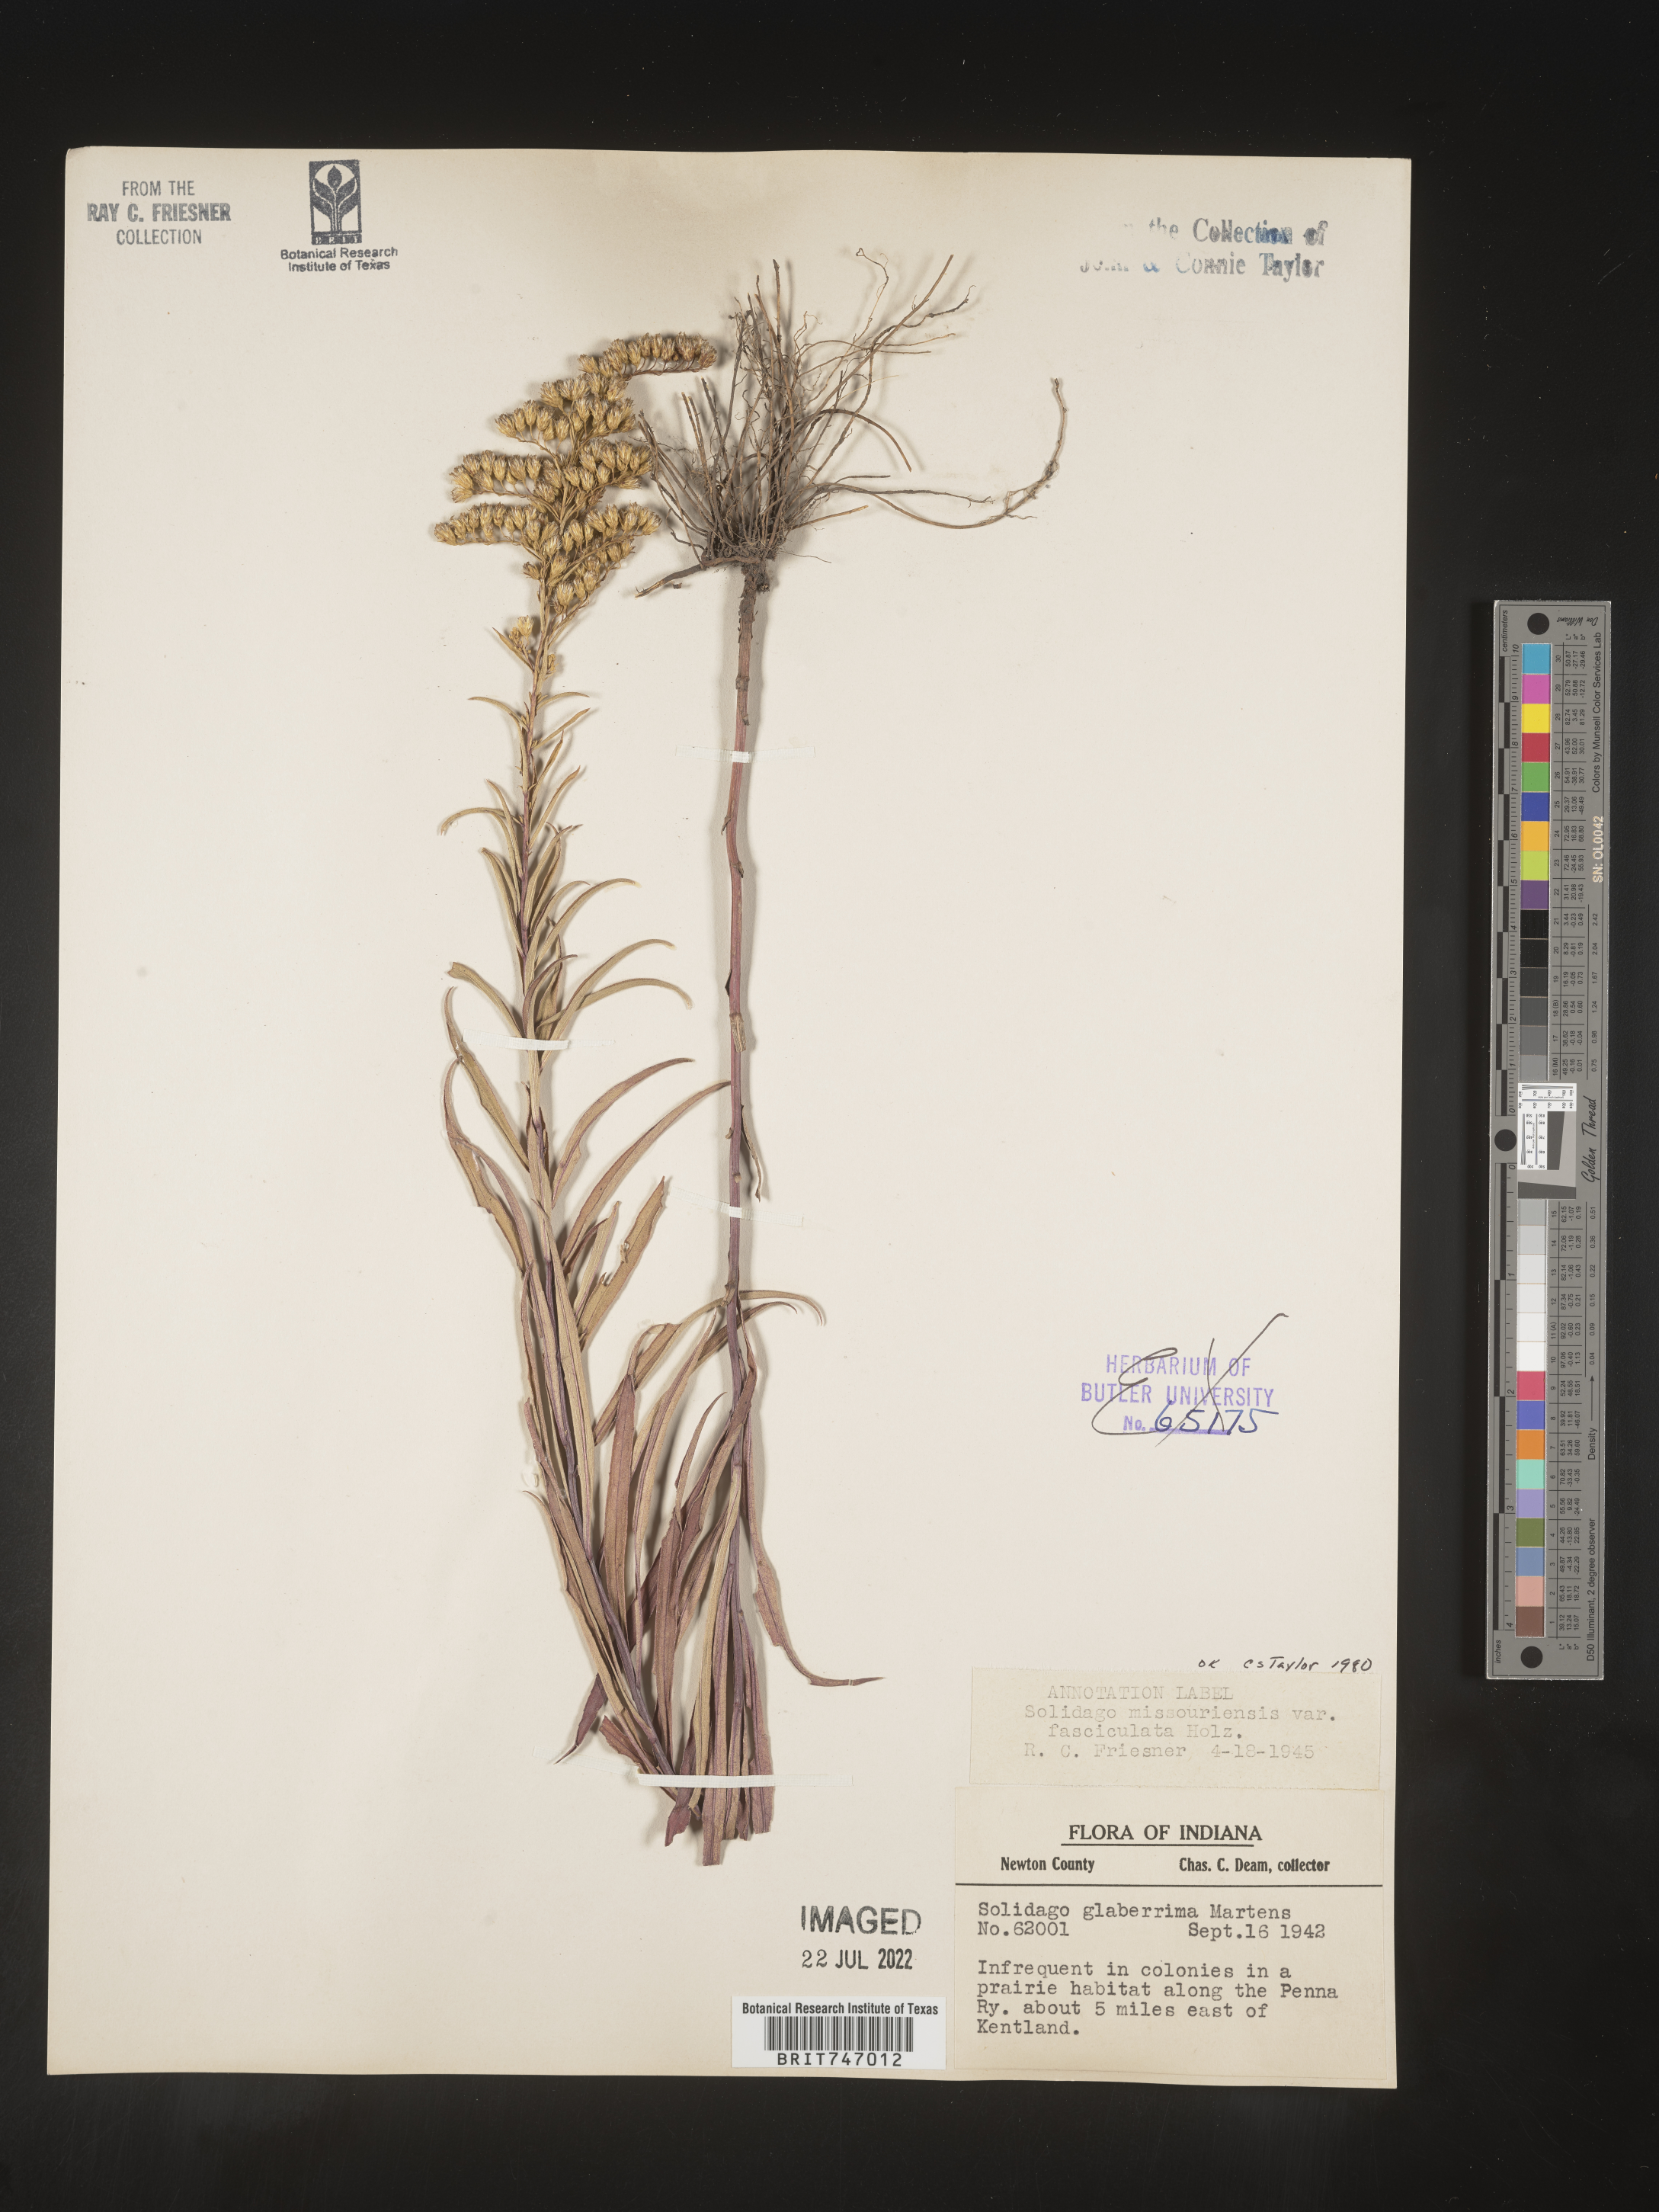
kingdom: Plantae
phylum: Tracheophyta
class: Magnoliopsida
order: Asterales
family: Asteraceae
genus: Solidago
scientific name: Solidago missouriensis
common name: Prairie goldenrod
